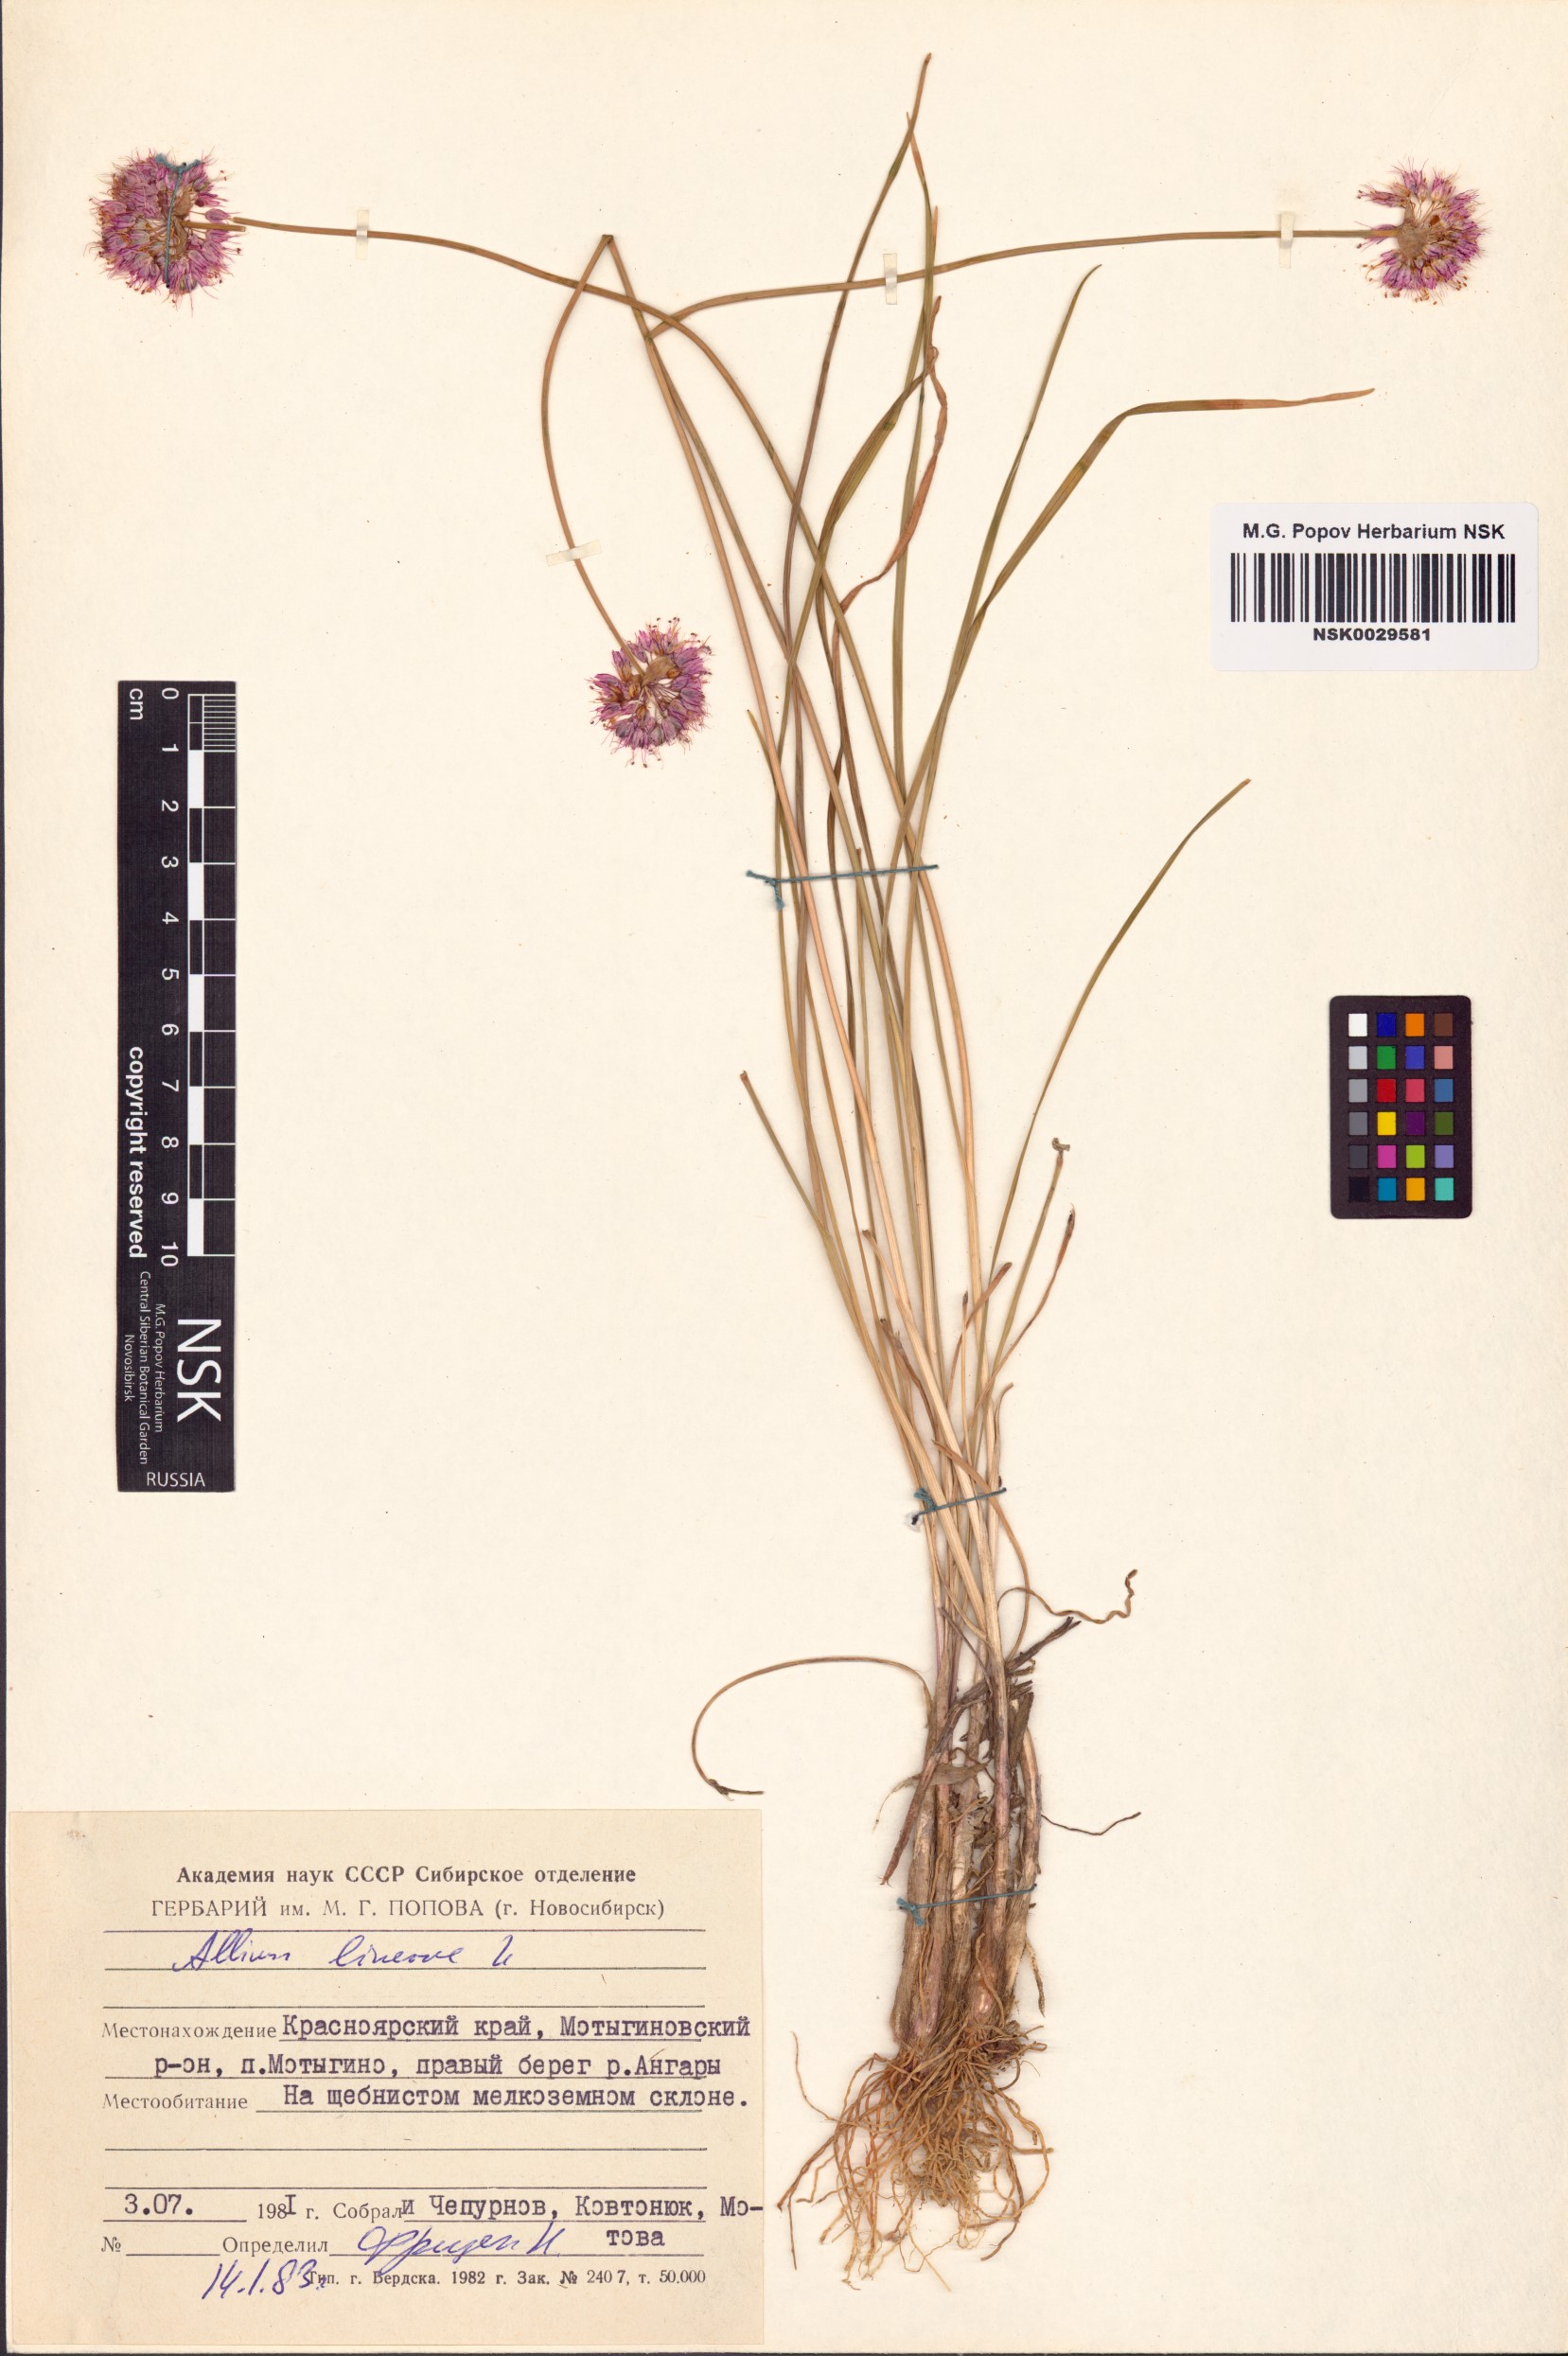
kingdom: Plantae
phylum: Tracheophyta
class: Liliopsida
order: Asparagales
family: Amaryllidaceae
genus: Allium
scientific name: Allium lineare
